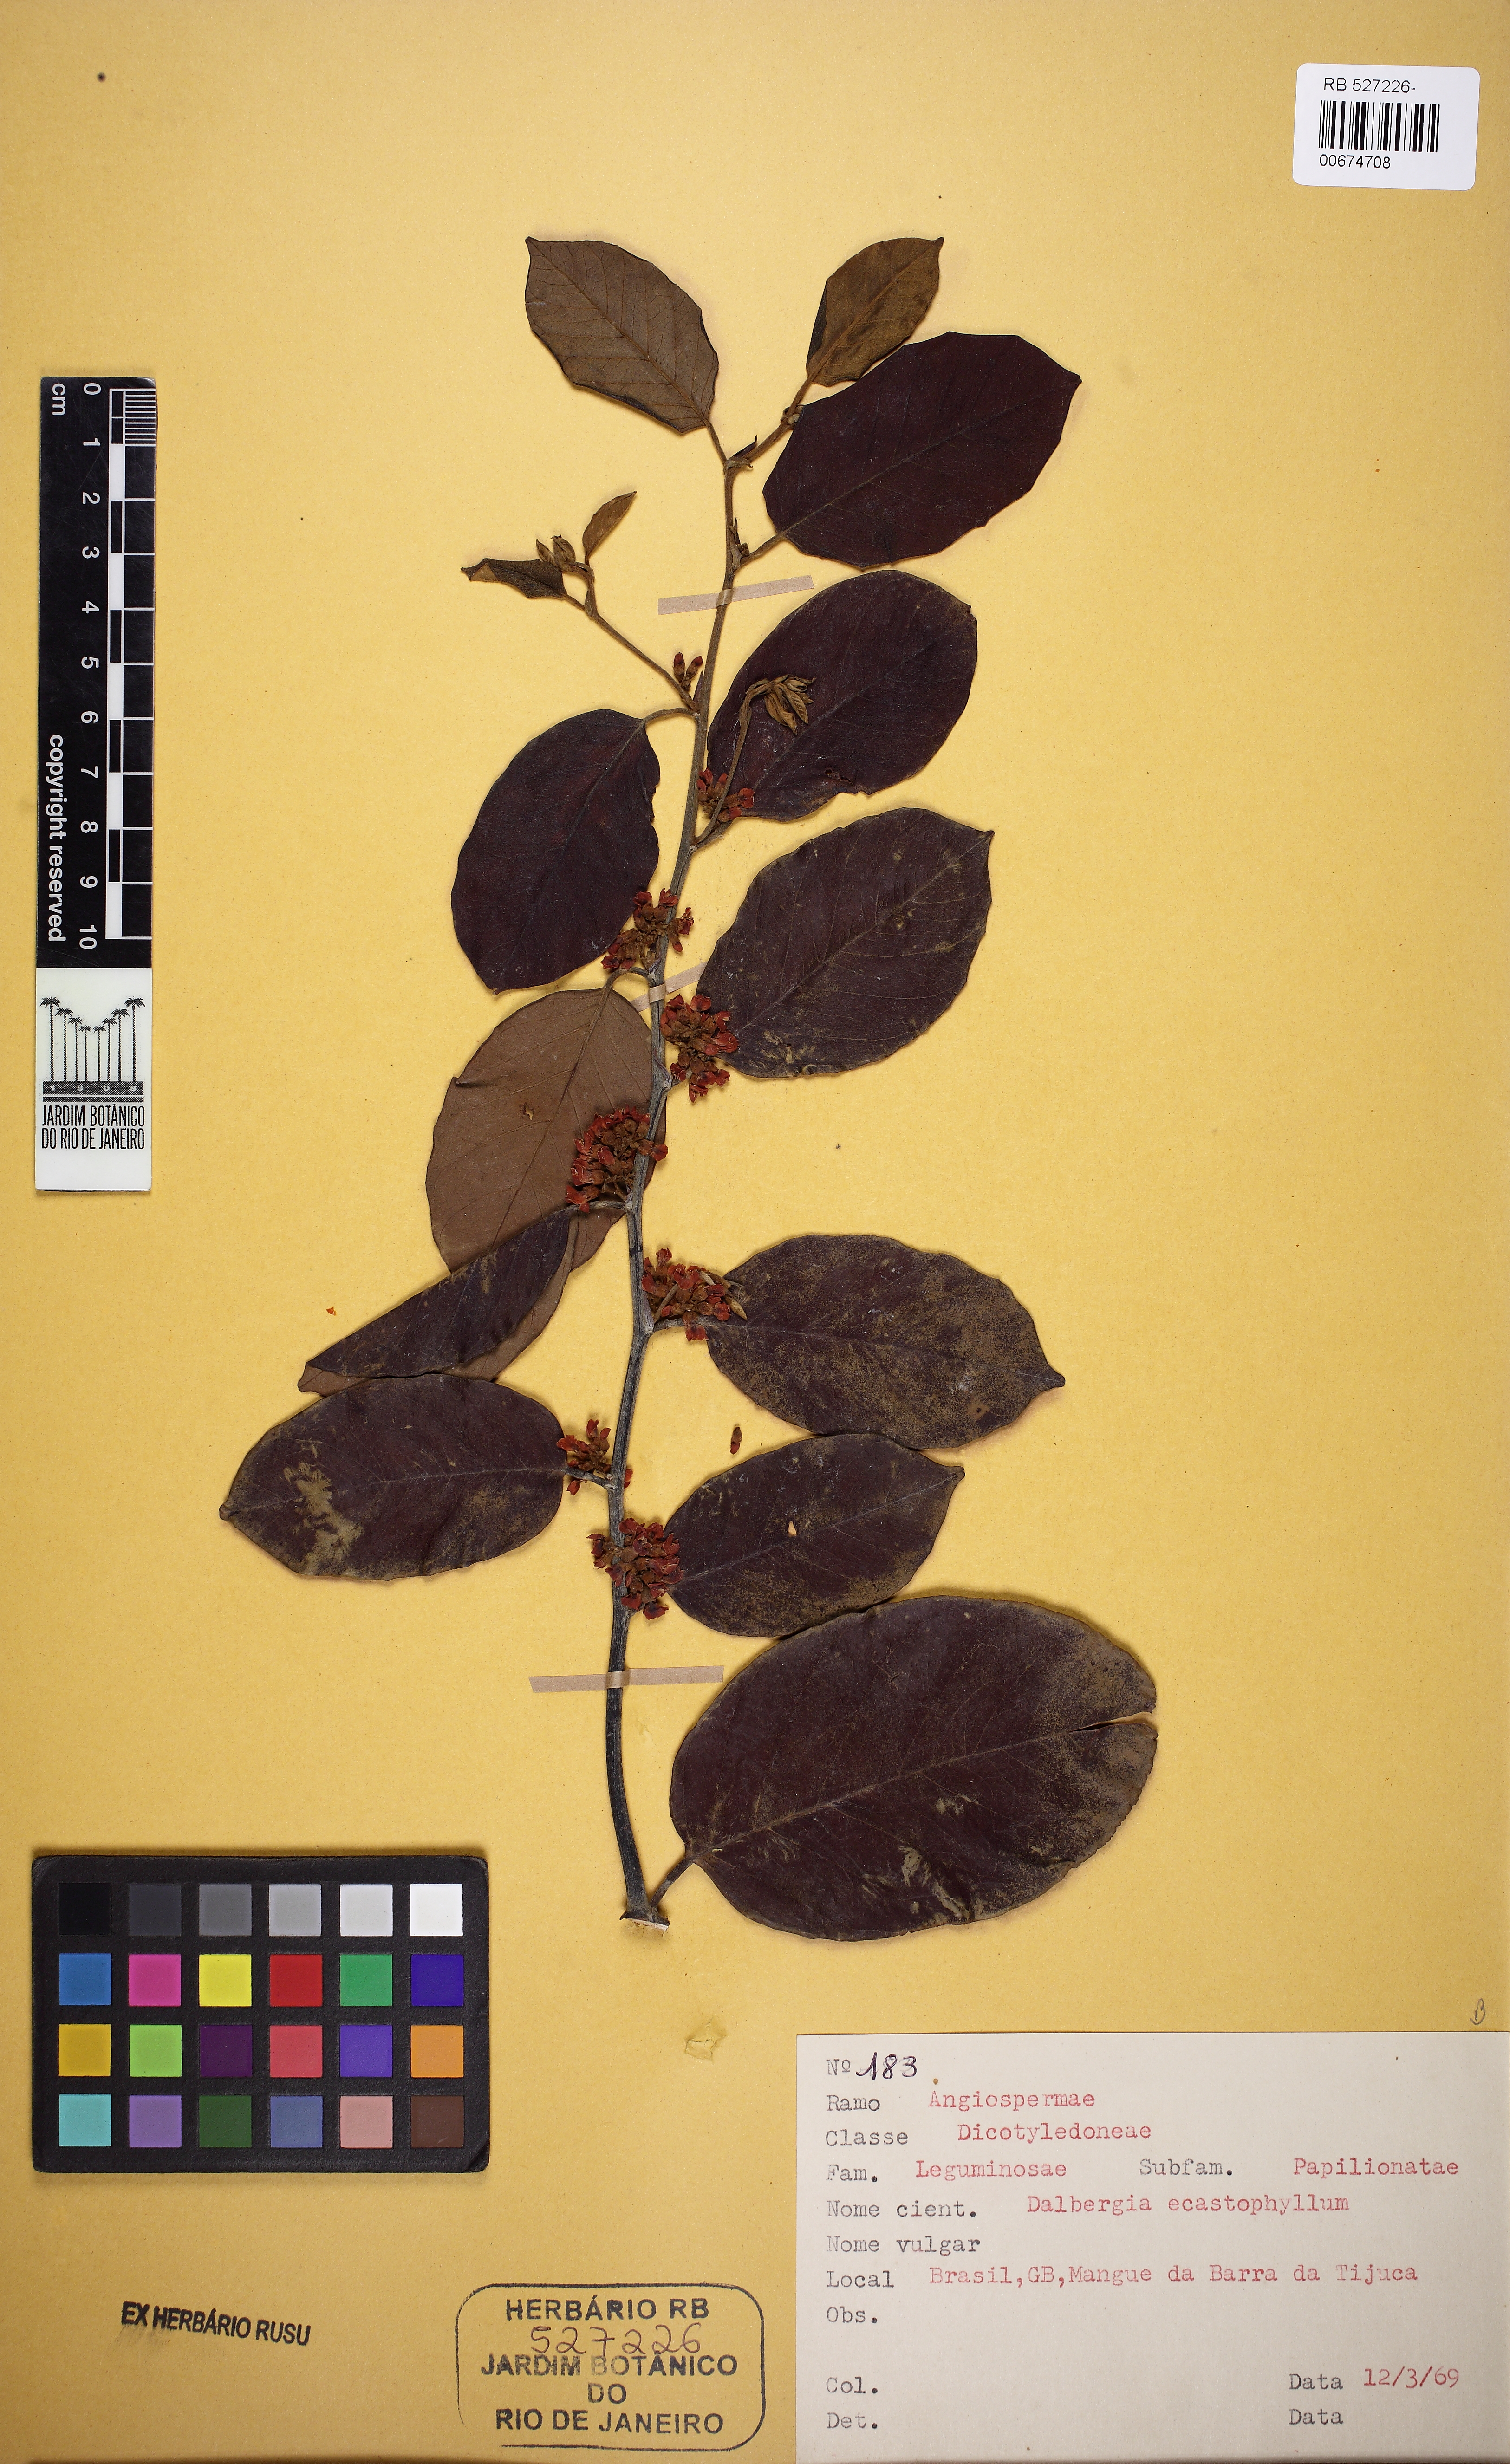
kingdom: Plantae
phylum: Tracheophyta
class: Magnoliopsida
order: Fabales
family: Fabaceae
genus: Dalbergia
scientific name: Dalbergia ecastaphyllum
